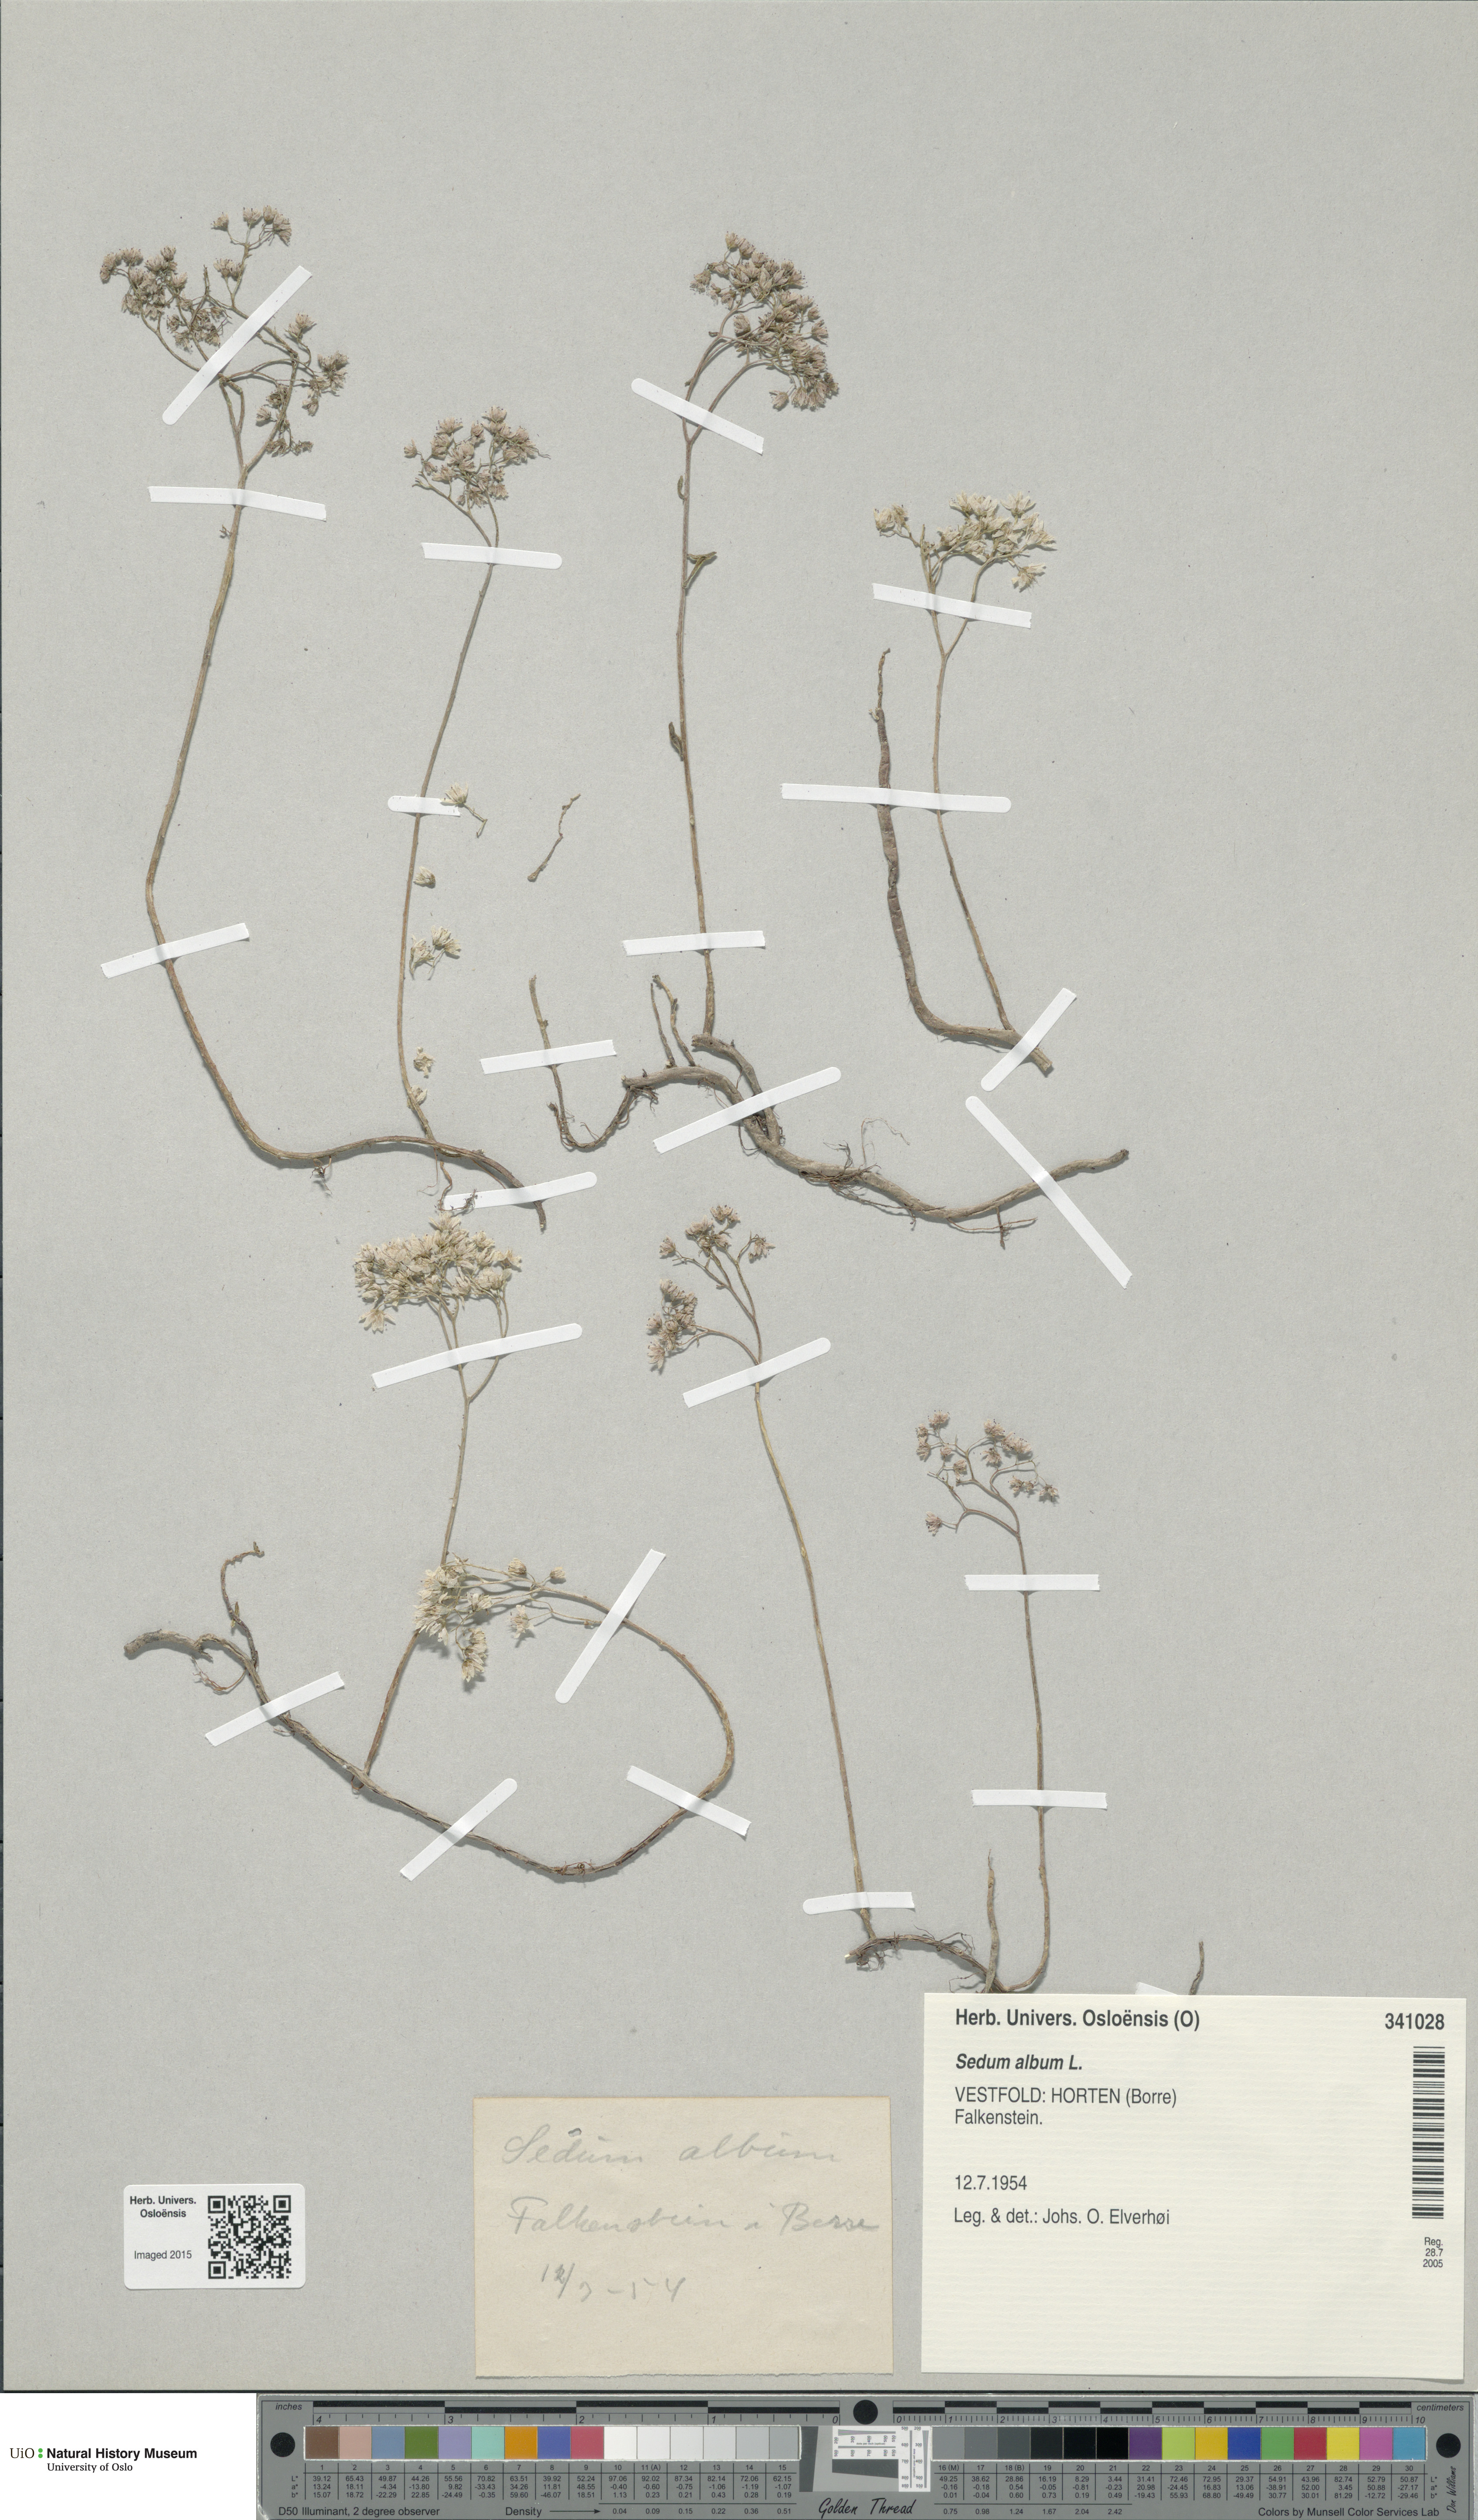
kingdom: Plantae
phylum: Tracheophyta
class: Magnoliopsida
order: Saxifragales
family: Crassulaceae
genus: Sedum
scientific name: Sedum album
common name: White stonecrop
